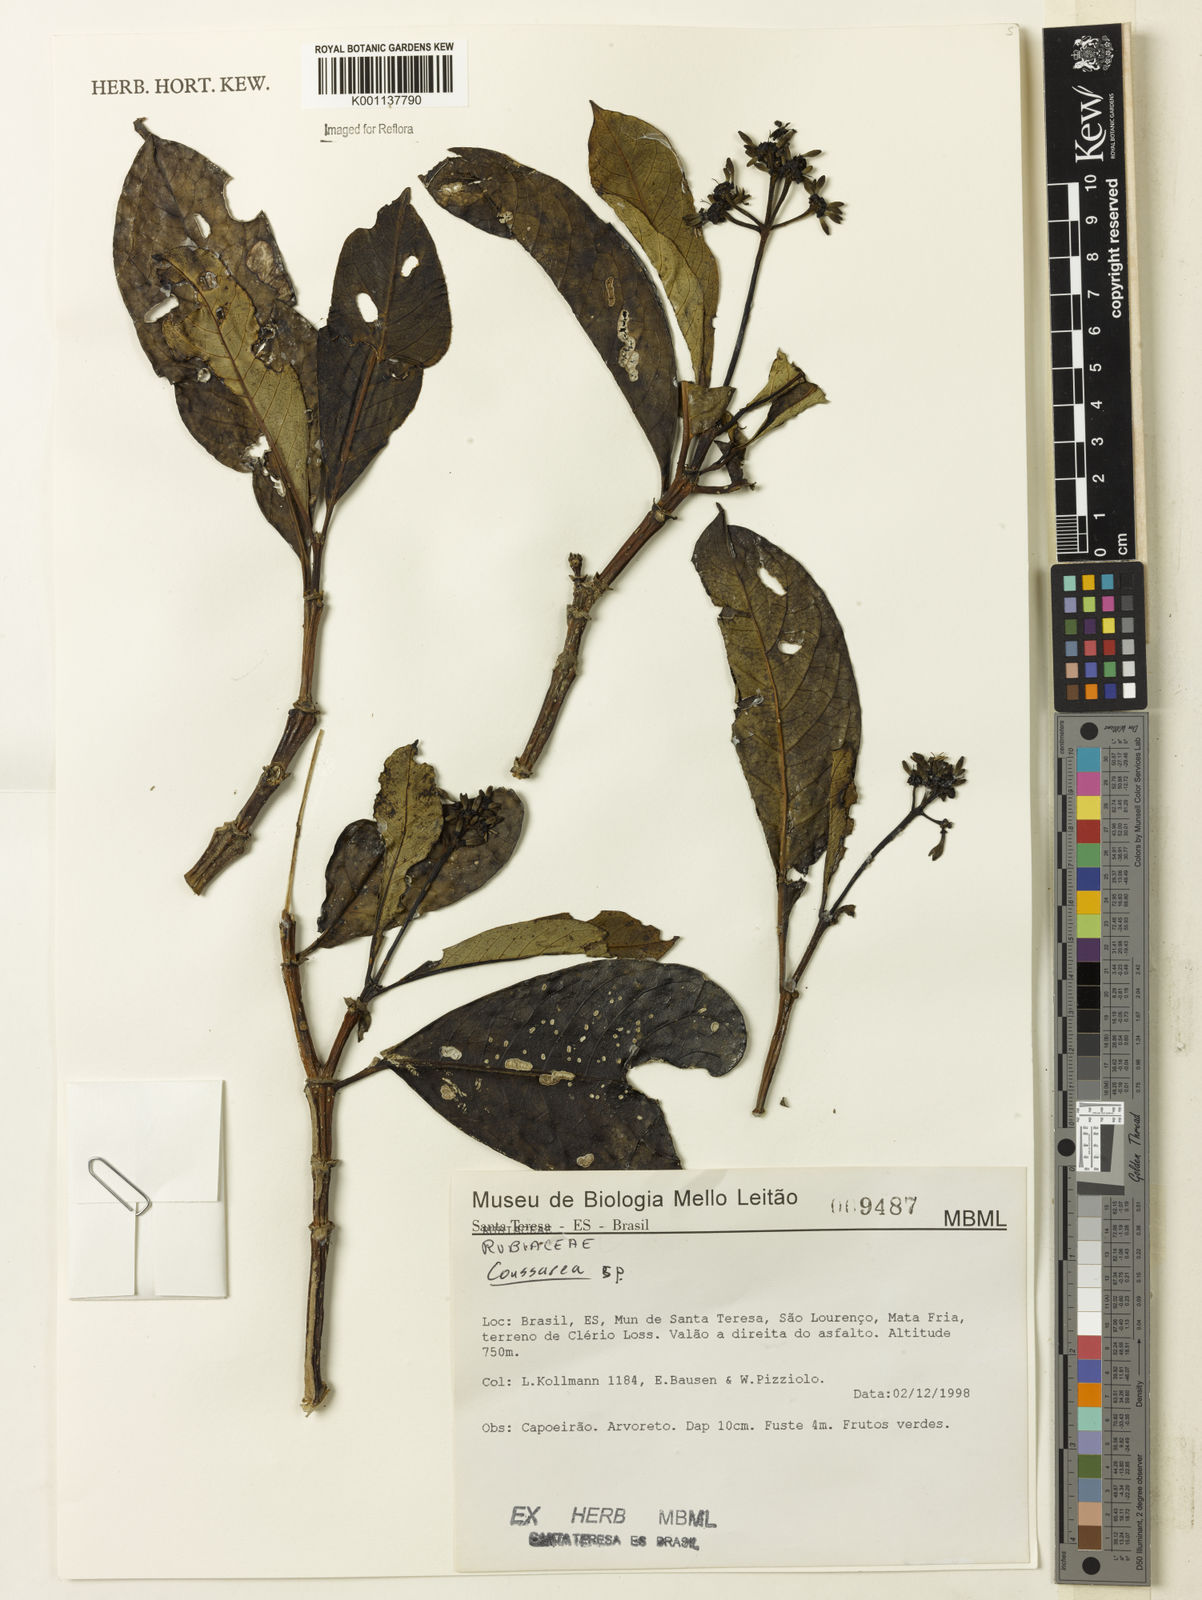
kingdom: Plantae
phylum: Tracheophyta
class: Magnoliopsida
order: Gentianales
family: Rubiaceae
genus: Coussarea
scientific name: Coussarea
